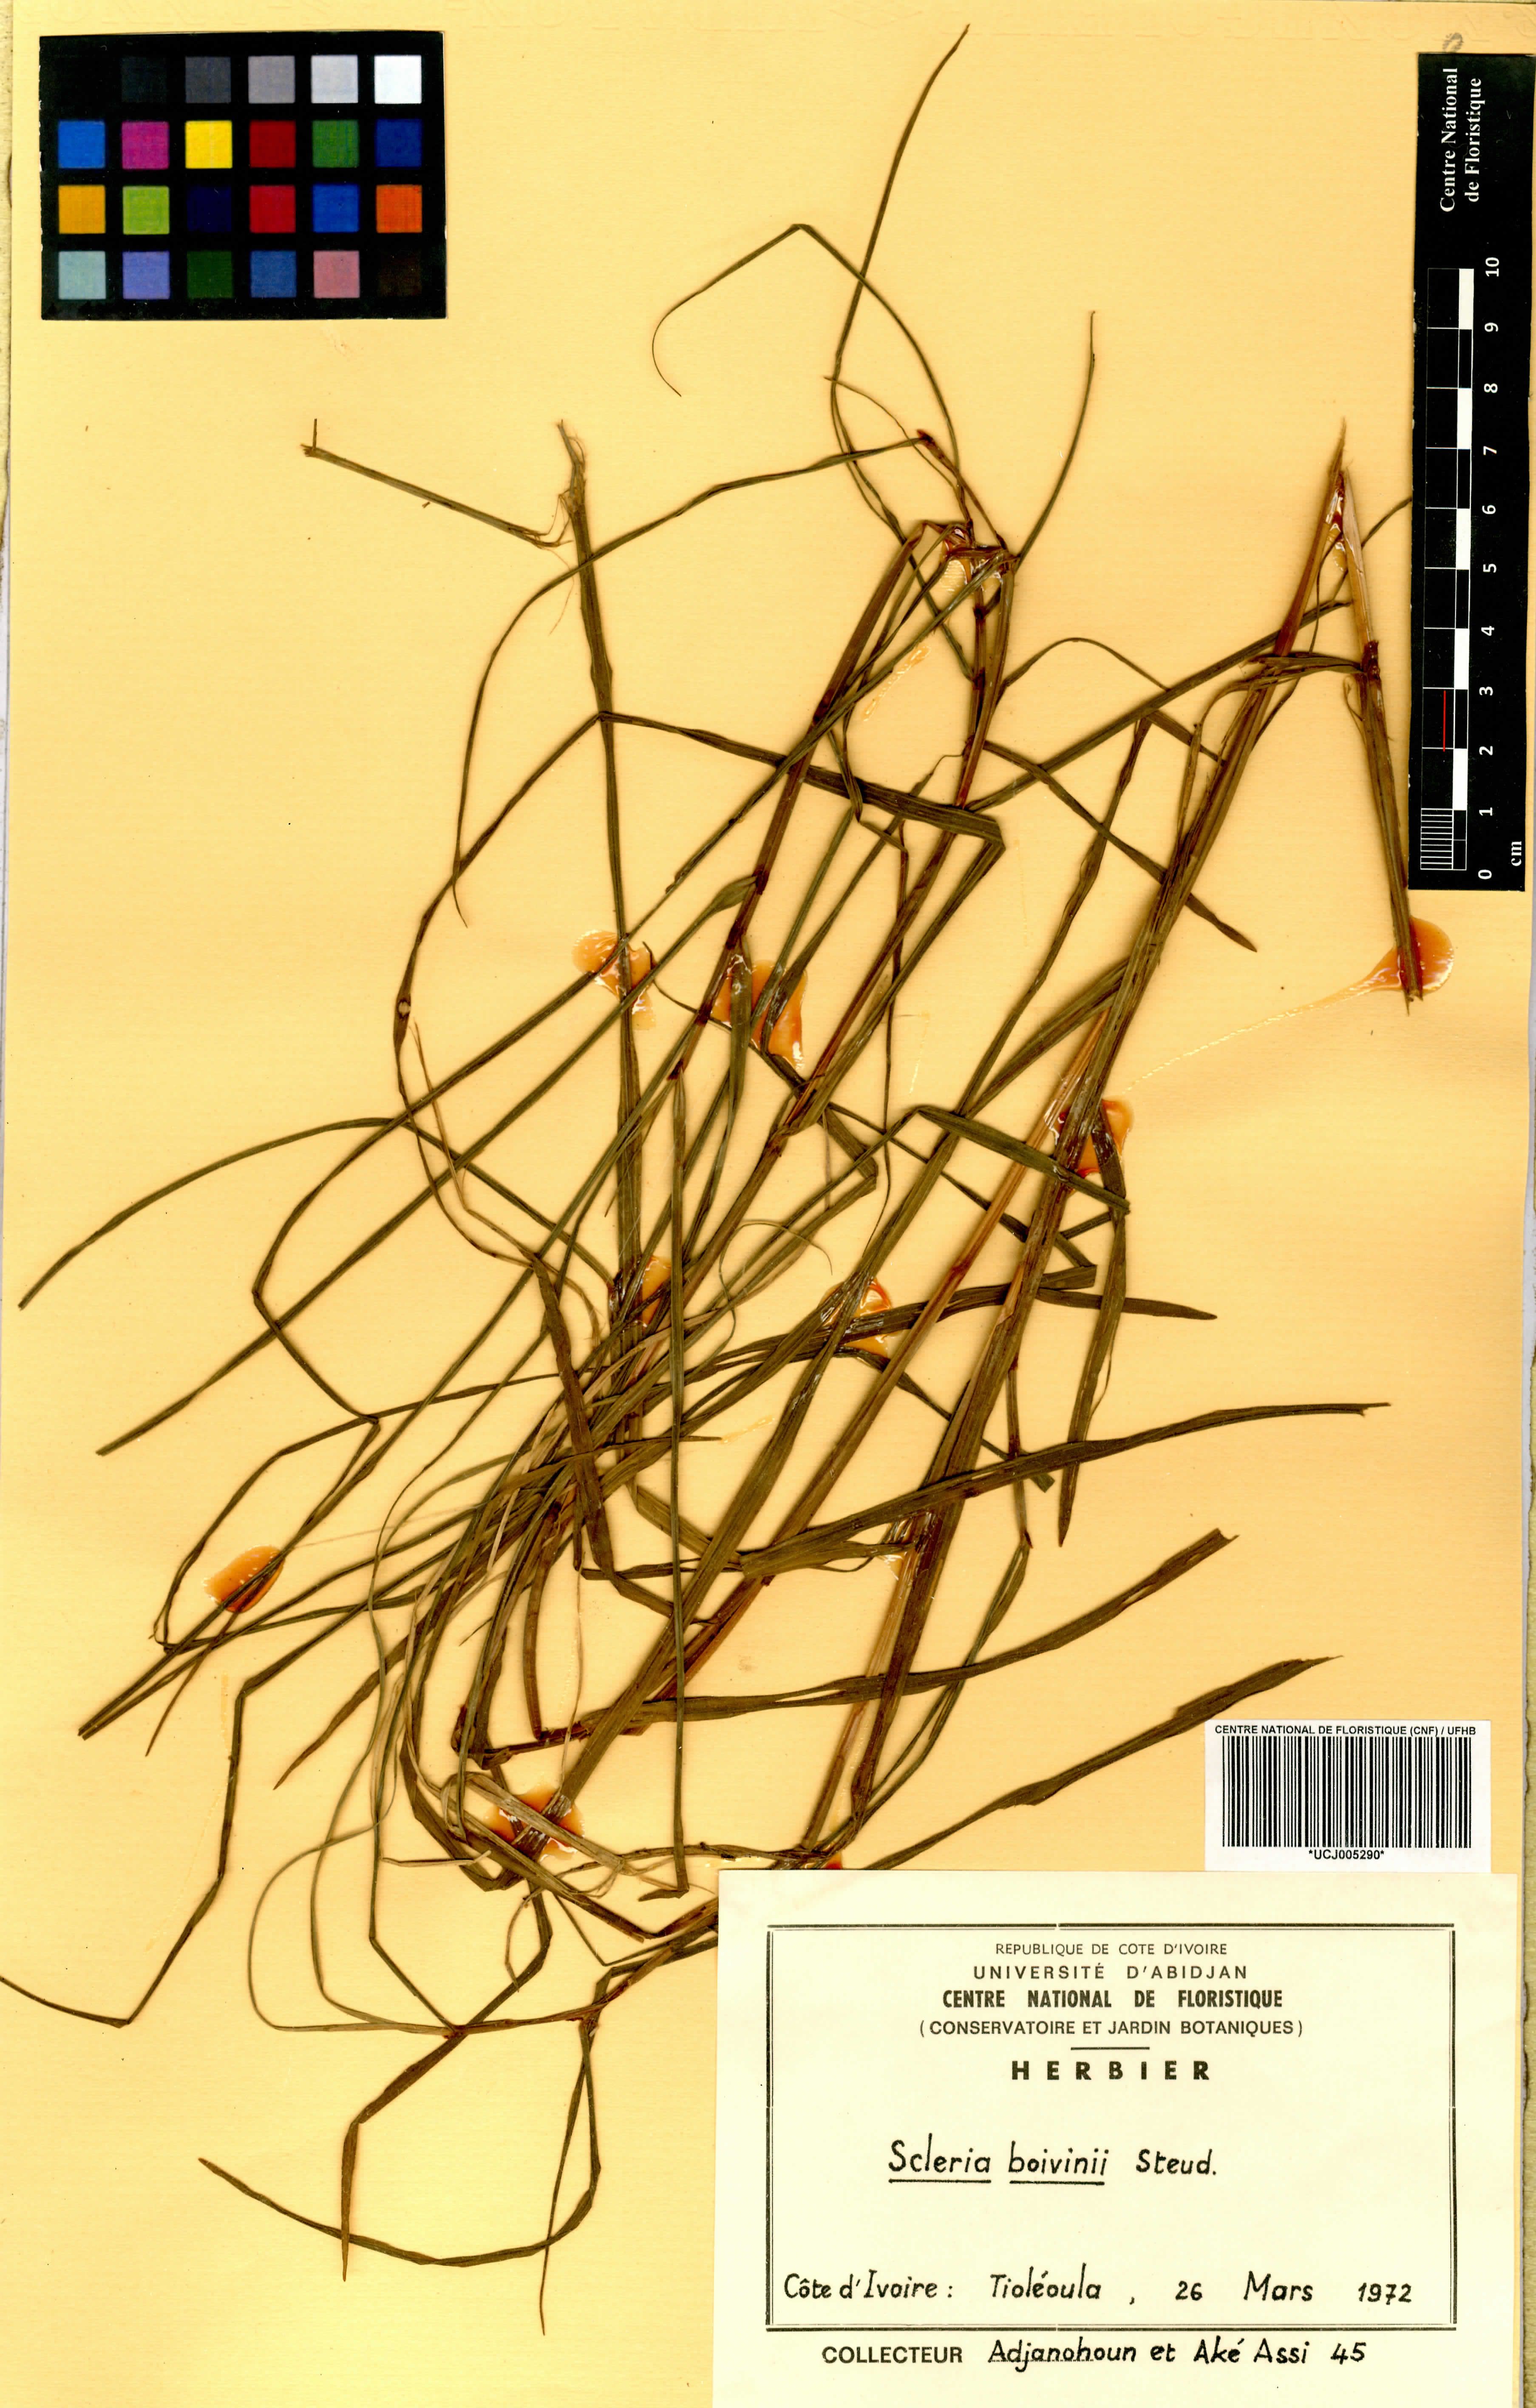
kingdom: Plantae
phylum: Tracheophyta
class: Liliopsida
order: Poales
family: Cyperaceae
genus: Scleria
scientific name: Scleria boivinii
